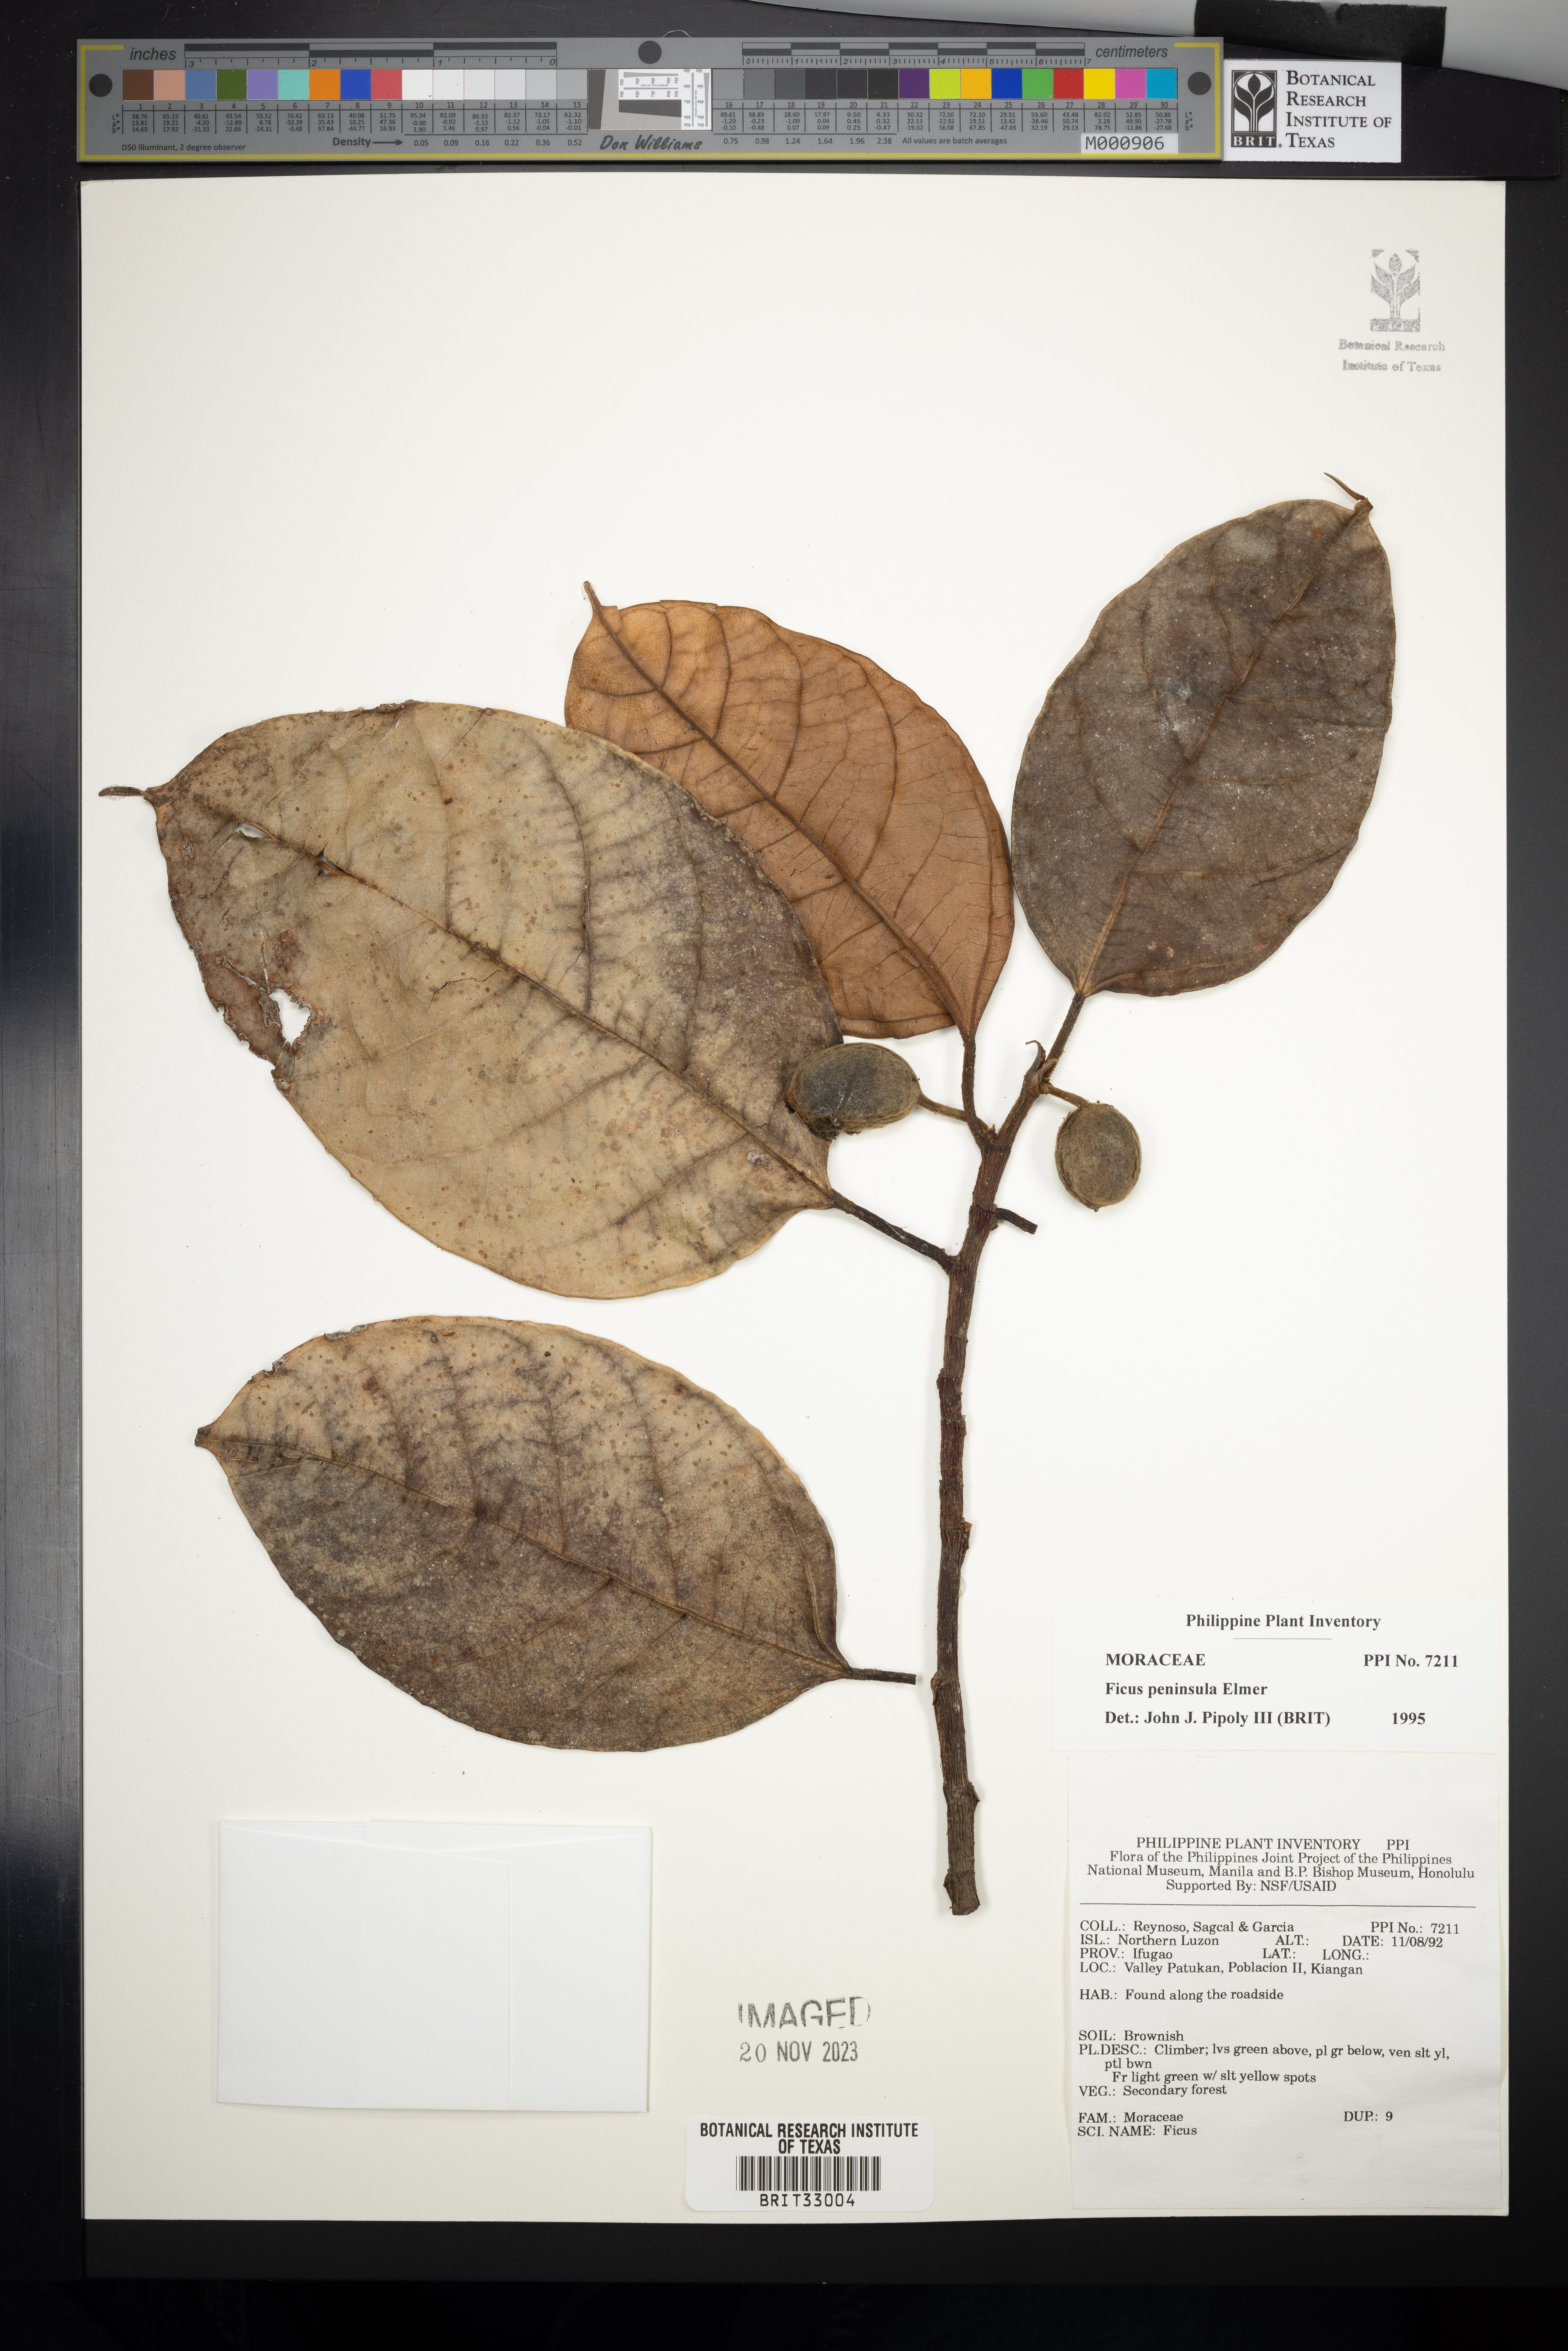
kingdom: Plantae
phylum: Tracheophyta
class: Magnoliopsida
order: Rosales
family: Moraceae
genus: Ficus
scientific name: Ficus peninsula
